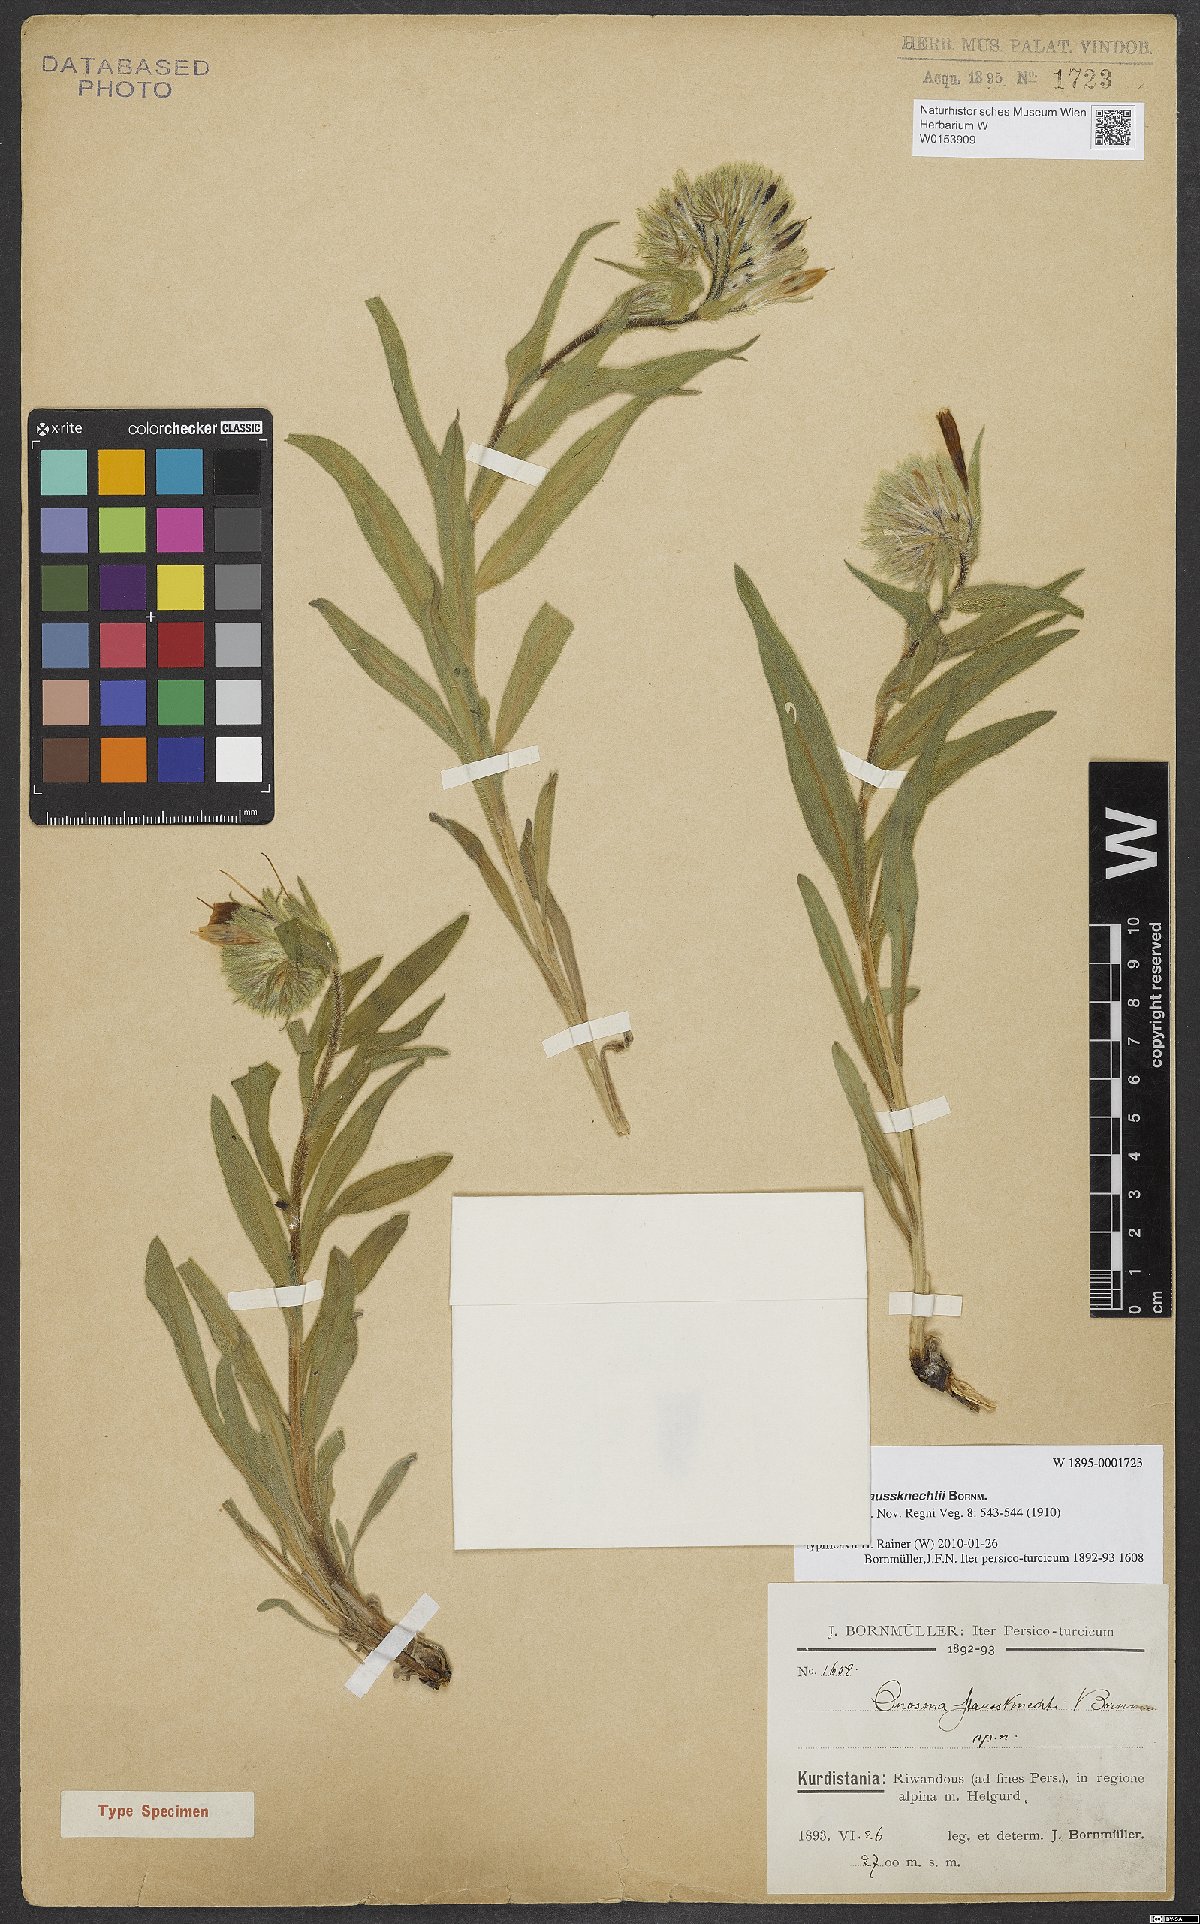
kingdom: Plantae
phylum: Tracheophyta
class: Magnoliopsida
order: Boraginales
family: Boraginaceae
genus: Onosma
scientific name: Onosma haussknechtii
